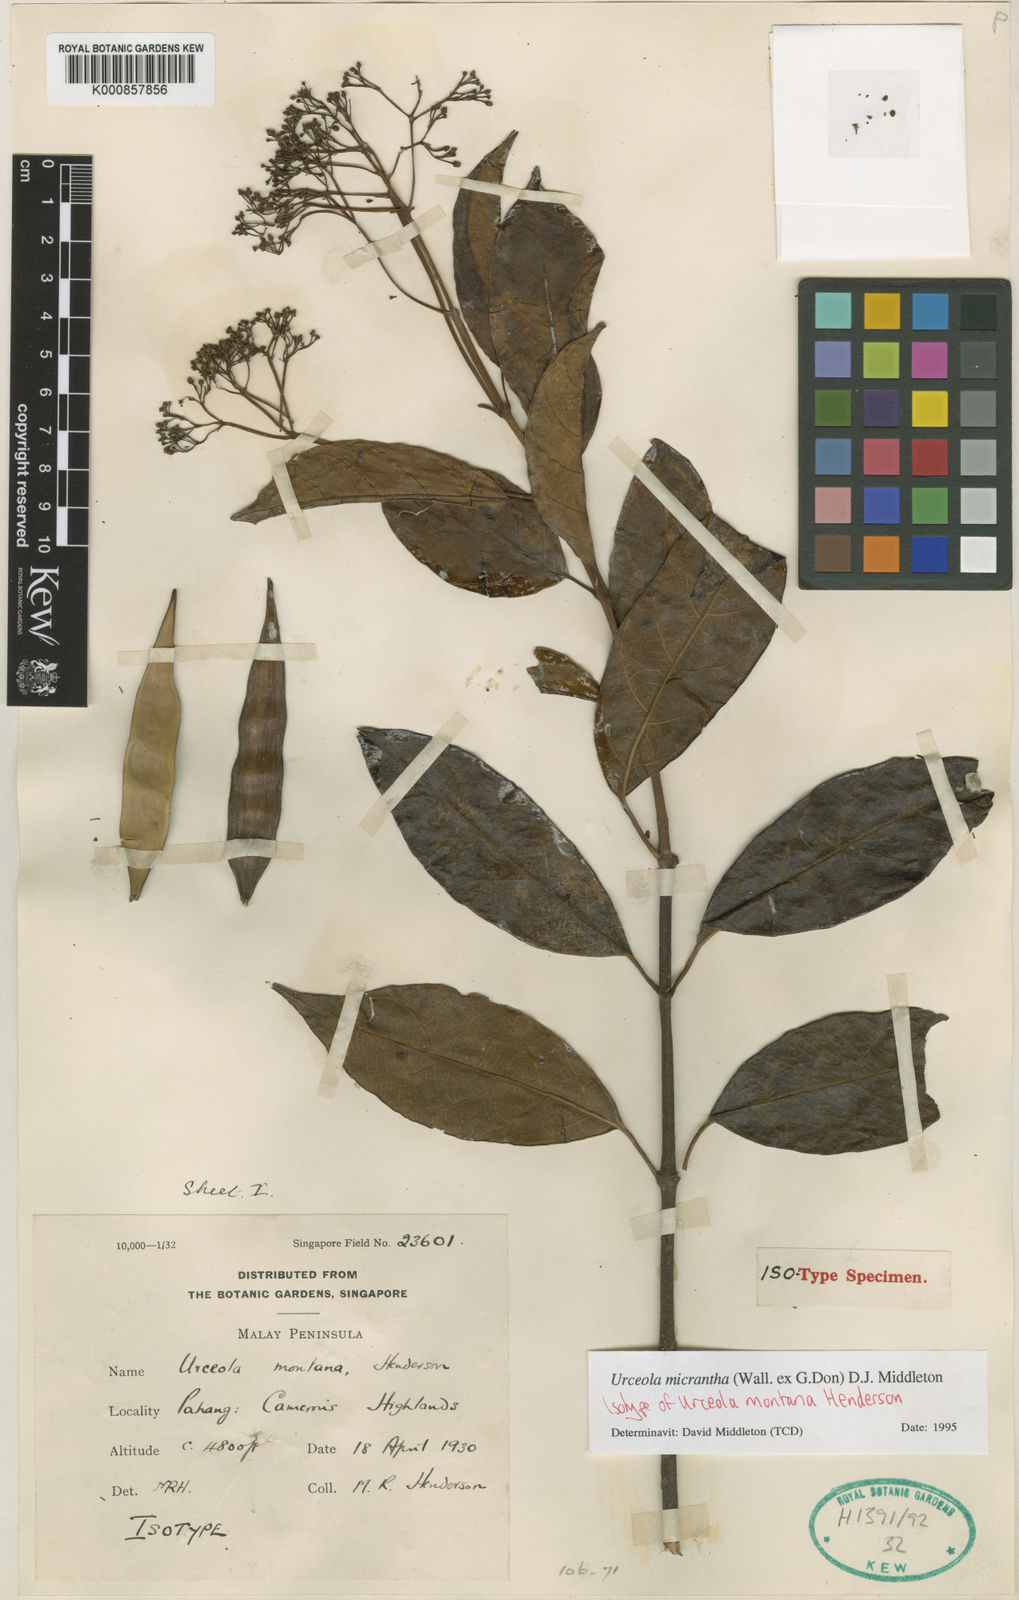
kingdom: Plantae
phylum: Tracheophyta
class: Magnoliopsida
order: Gentianales
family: Apocynaceae
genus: Urceola
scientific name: Urceola micrantha
